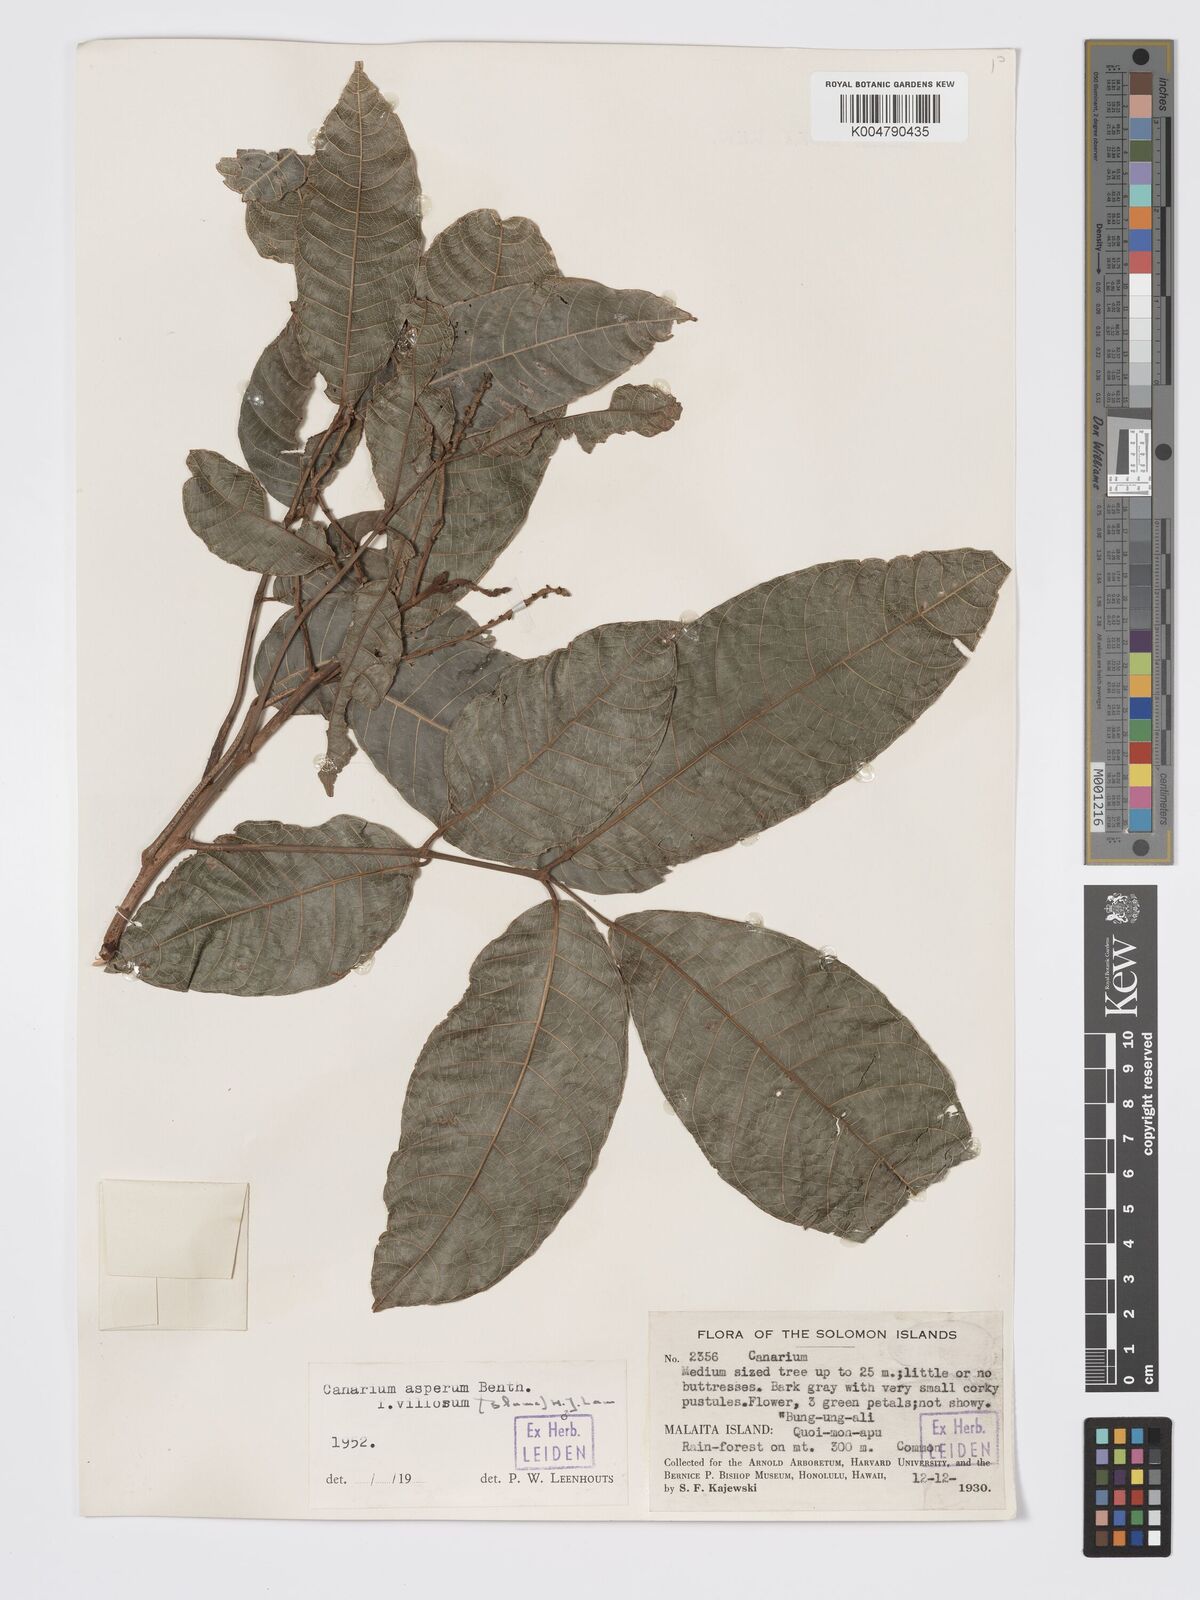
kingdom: Plantae
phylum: Tracheophyta
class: Magnoliopsida
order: Sapindales
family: Burseraceae
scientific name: Burseraceae
